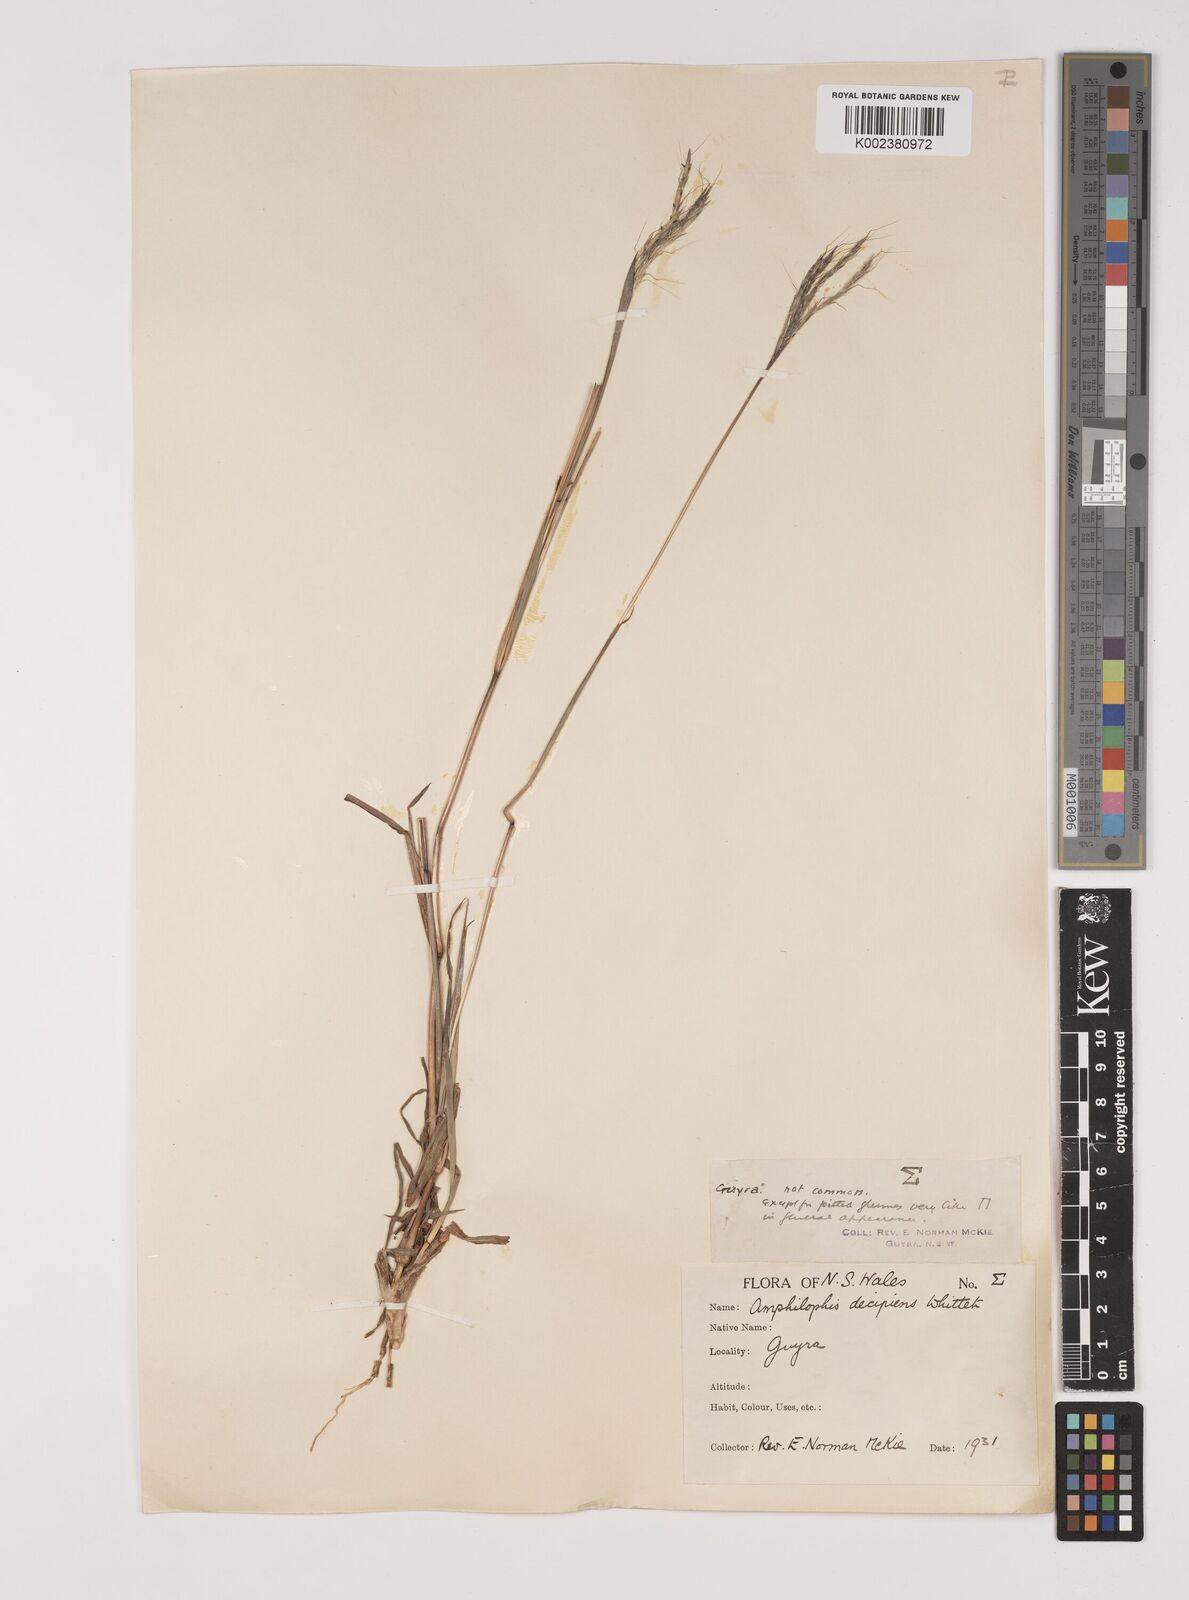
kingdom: Plantae
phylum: Tracheophyta
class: Liliopsida
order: Poales
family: Poaceae
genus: Bothriochloa
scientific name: Bothriochloa decipiens
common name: Pitted-bluegrass
